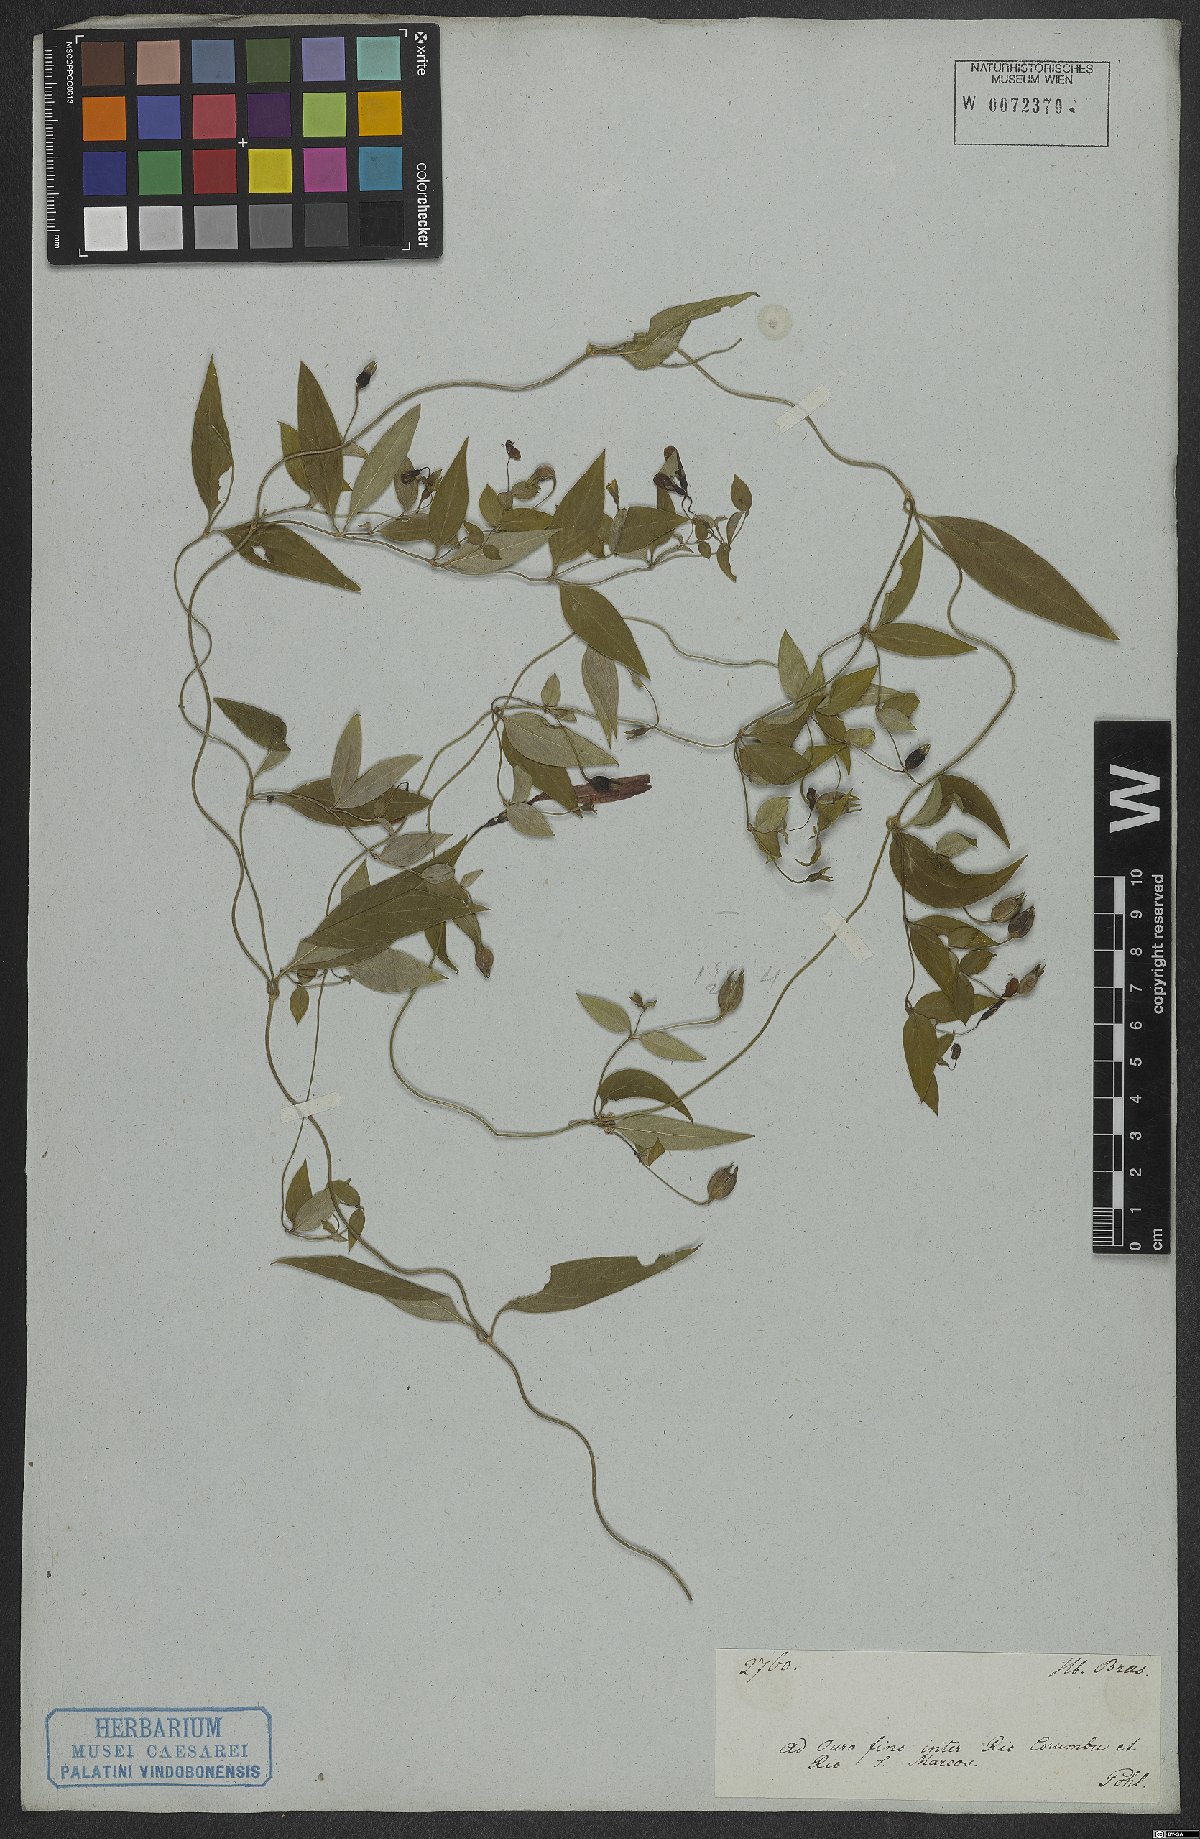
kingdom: Plantae
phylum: Tracheophyta
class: Magnoliopsida
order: Gentianales
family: Rubiaceae
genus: Manettia
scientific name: Manettia
